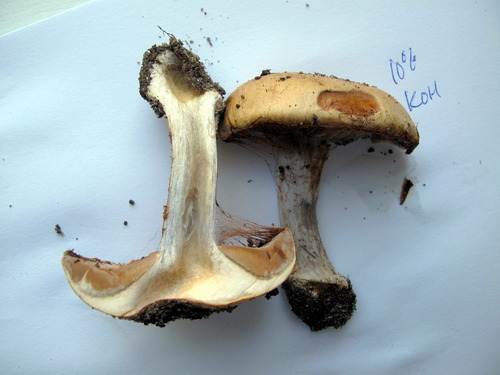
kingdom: Fungi
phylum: Basidiomycota
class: Agaricomycetes
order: Agaricales
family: Cortinariaceae
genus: Cortinarius
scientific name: Cortinarius anserinus
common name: bøge-slørhat
